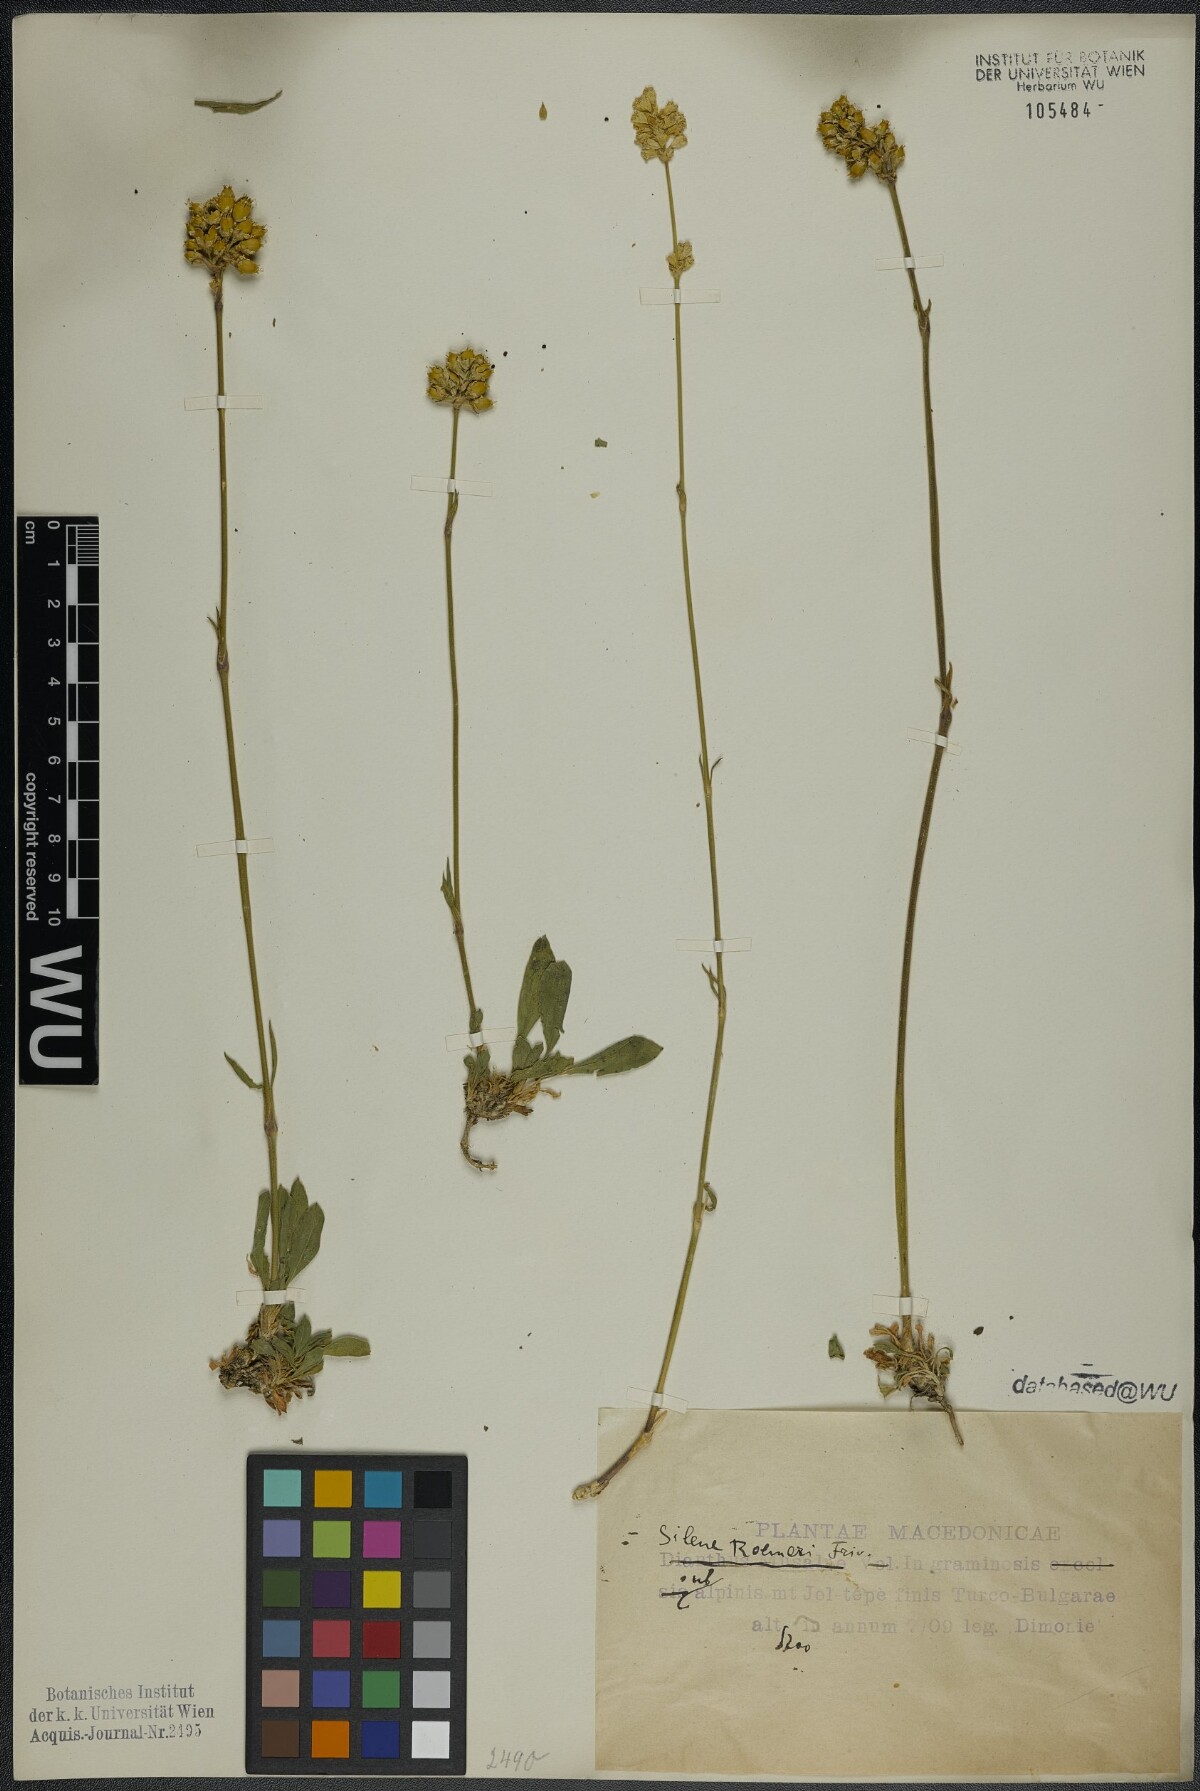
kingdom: Plantae
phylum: Tracheophyta
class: Magnoliopsida
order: Caryophyllales
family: Caryophyllaceae
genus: Silene
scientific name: Silene roemeri
